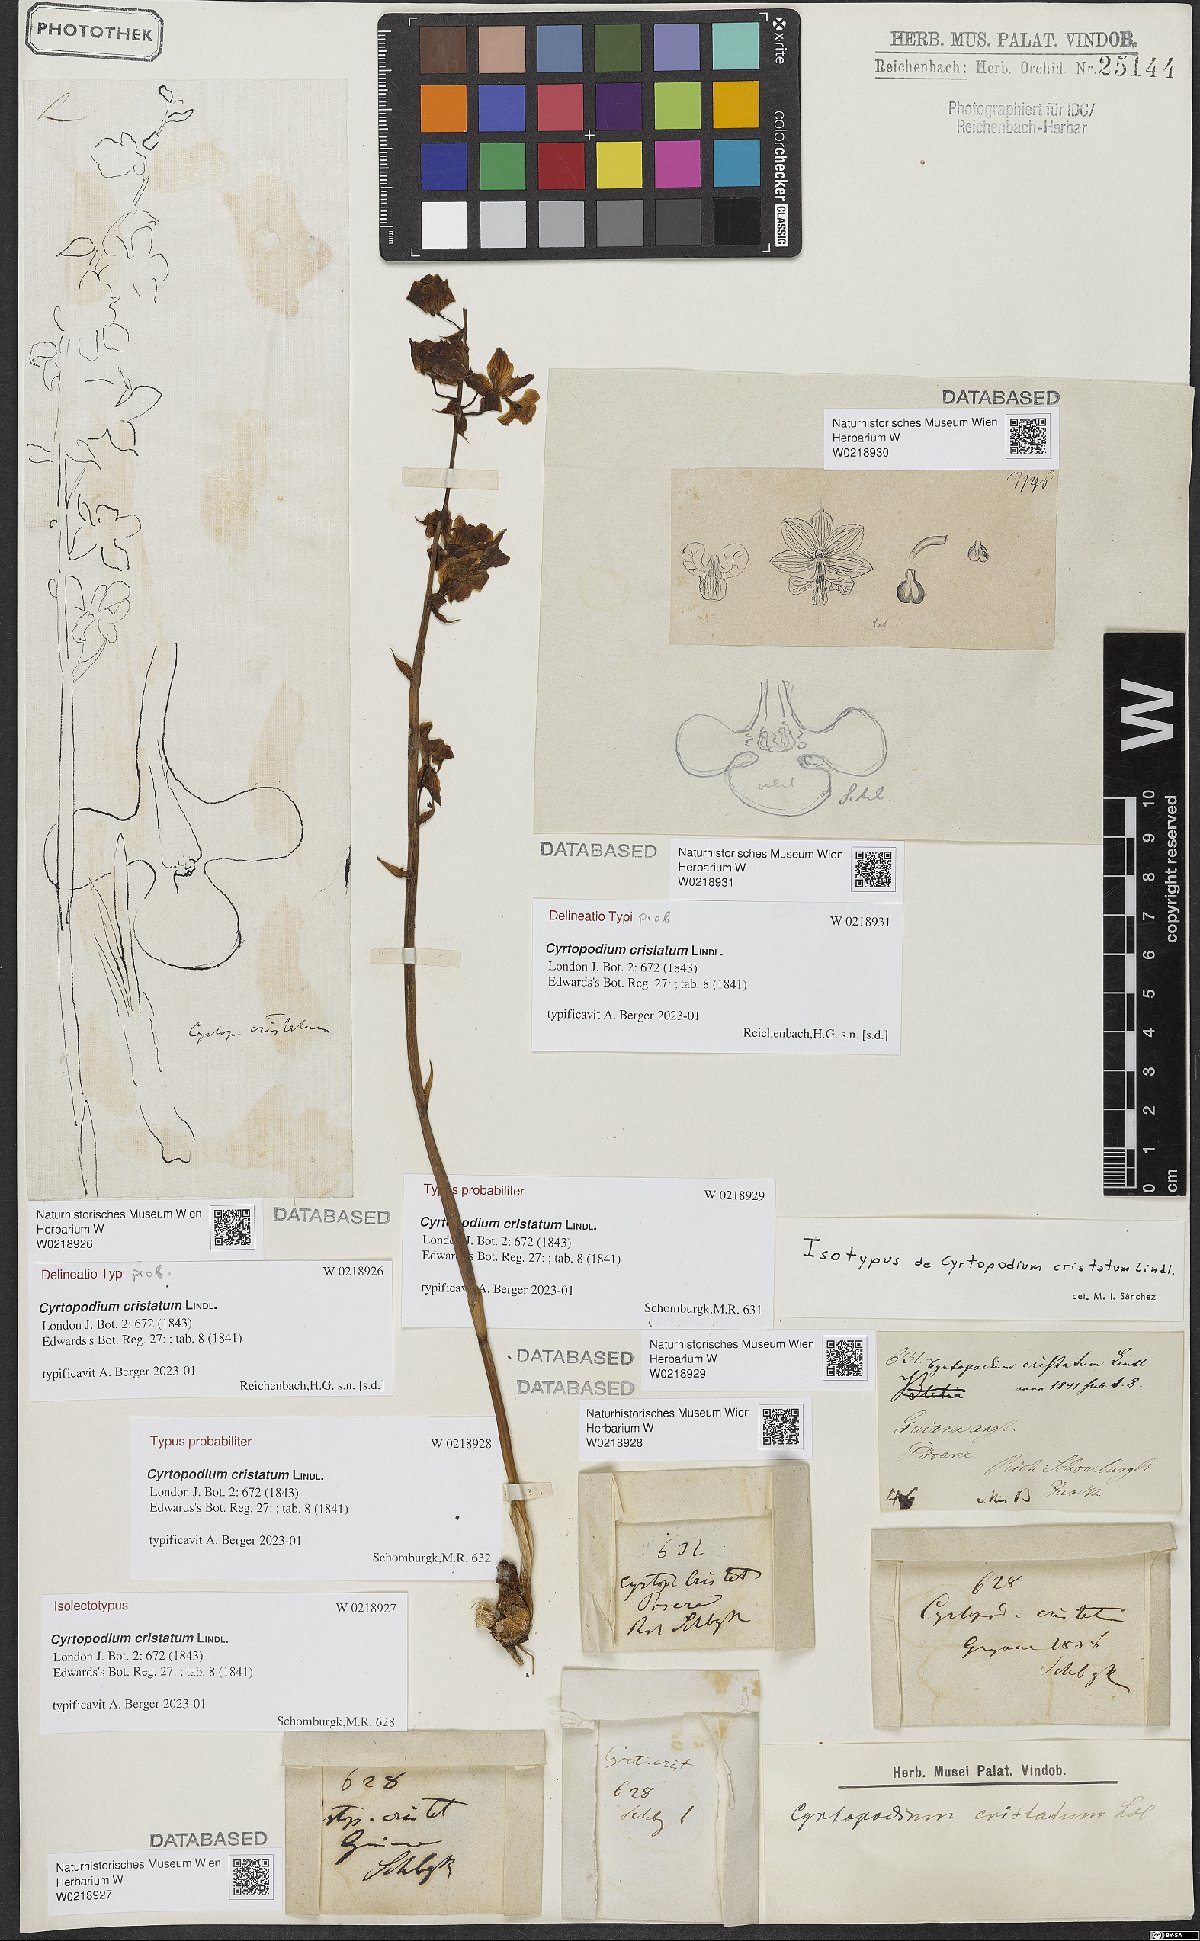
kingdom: Plantae
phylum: Tracheophyta
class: Liliopsida
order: Asparagales
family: Orchidaceae
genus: Cyrtopodium
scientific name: Cyrtopodium cristatum
